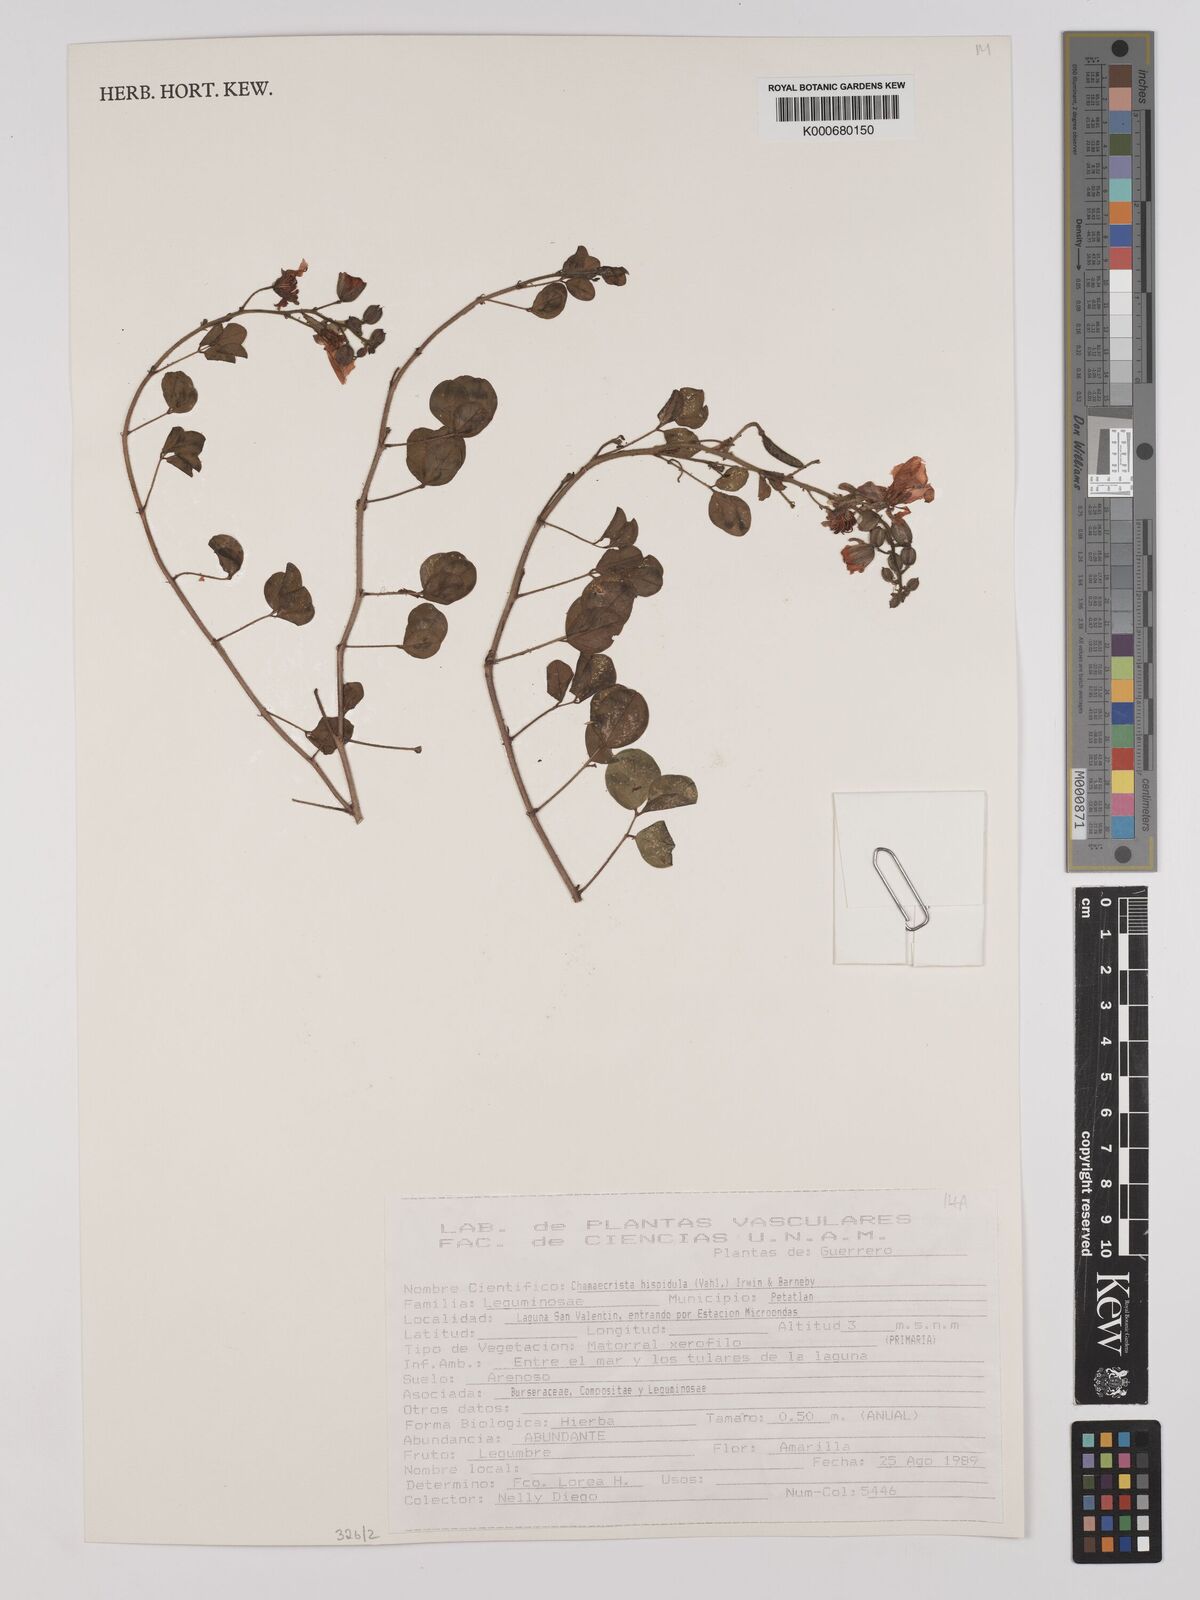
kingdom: Plantae
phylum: Tracheophyta
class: Magnoliopsida
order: Fabales
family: Fabaceae
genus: Chamaecrista
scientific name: Chamaecrista hispidula
